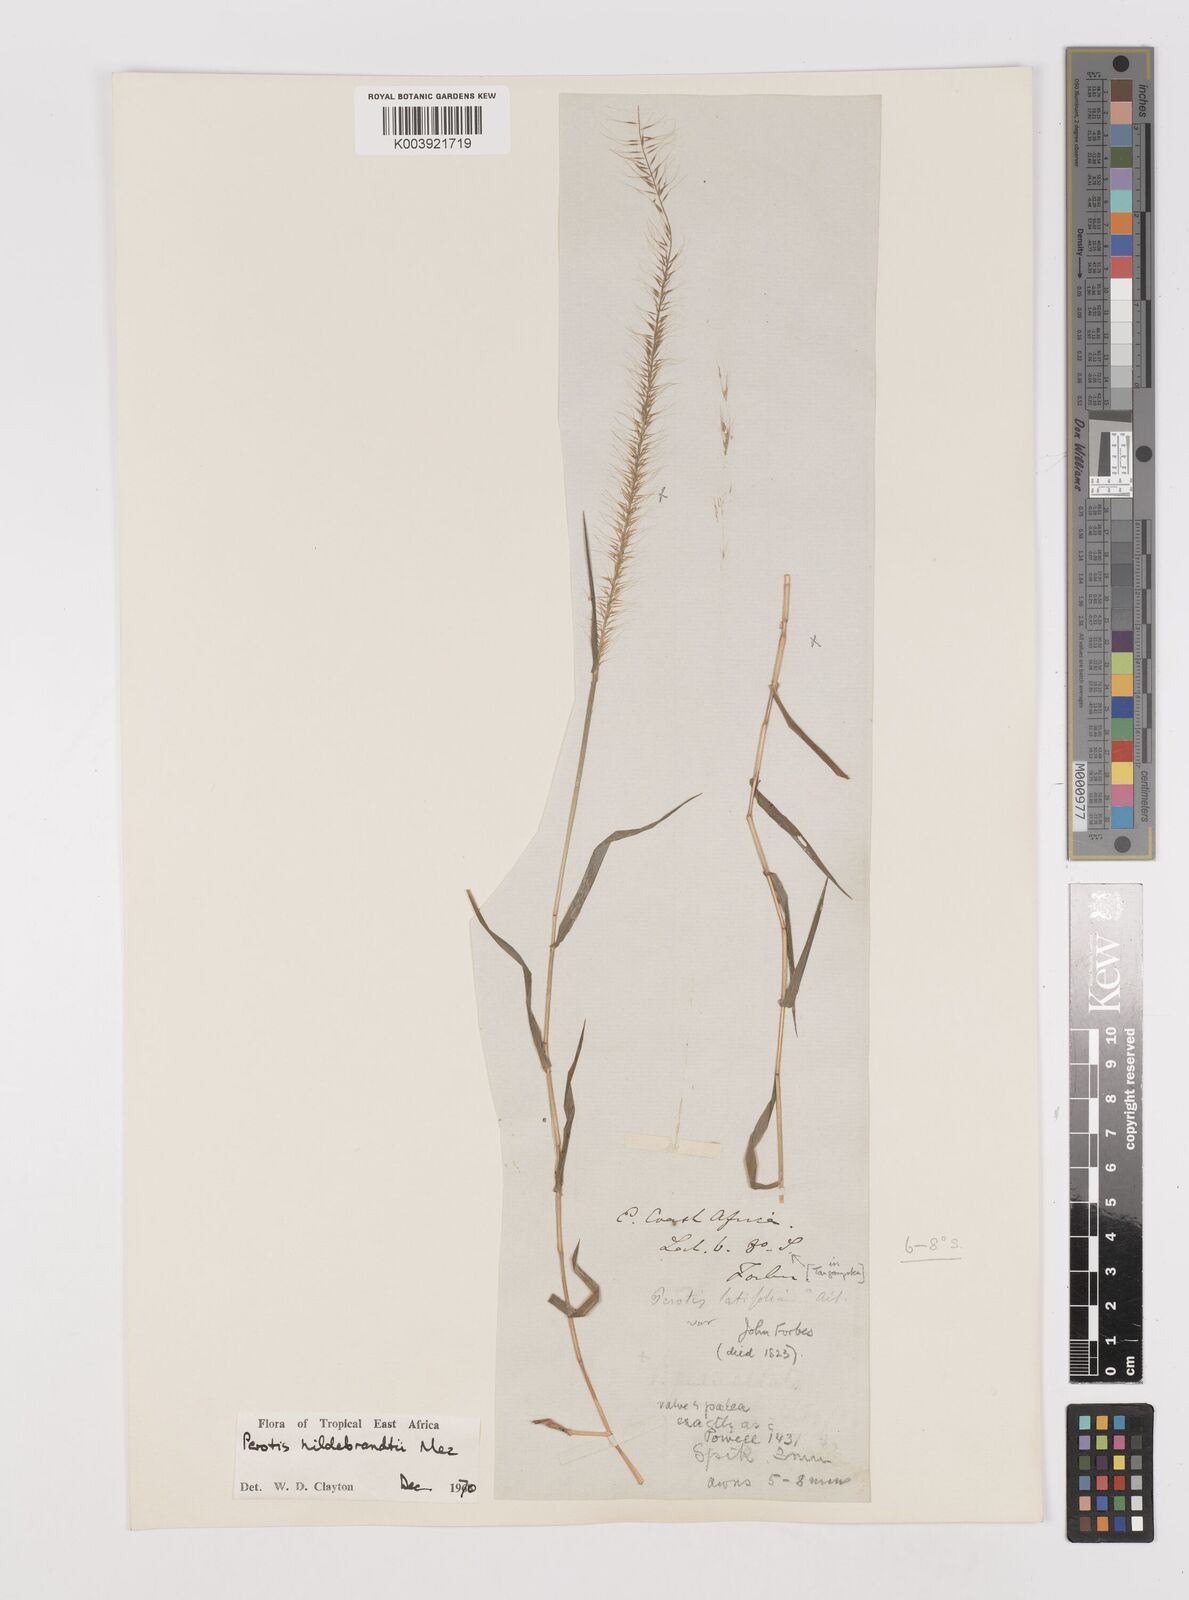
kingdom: Plantae
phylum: Tracheophyta
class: Liliopsida
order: Poales
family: Poaceae
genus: Perotis
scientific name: Perotis hildebrandtii
